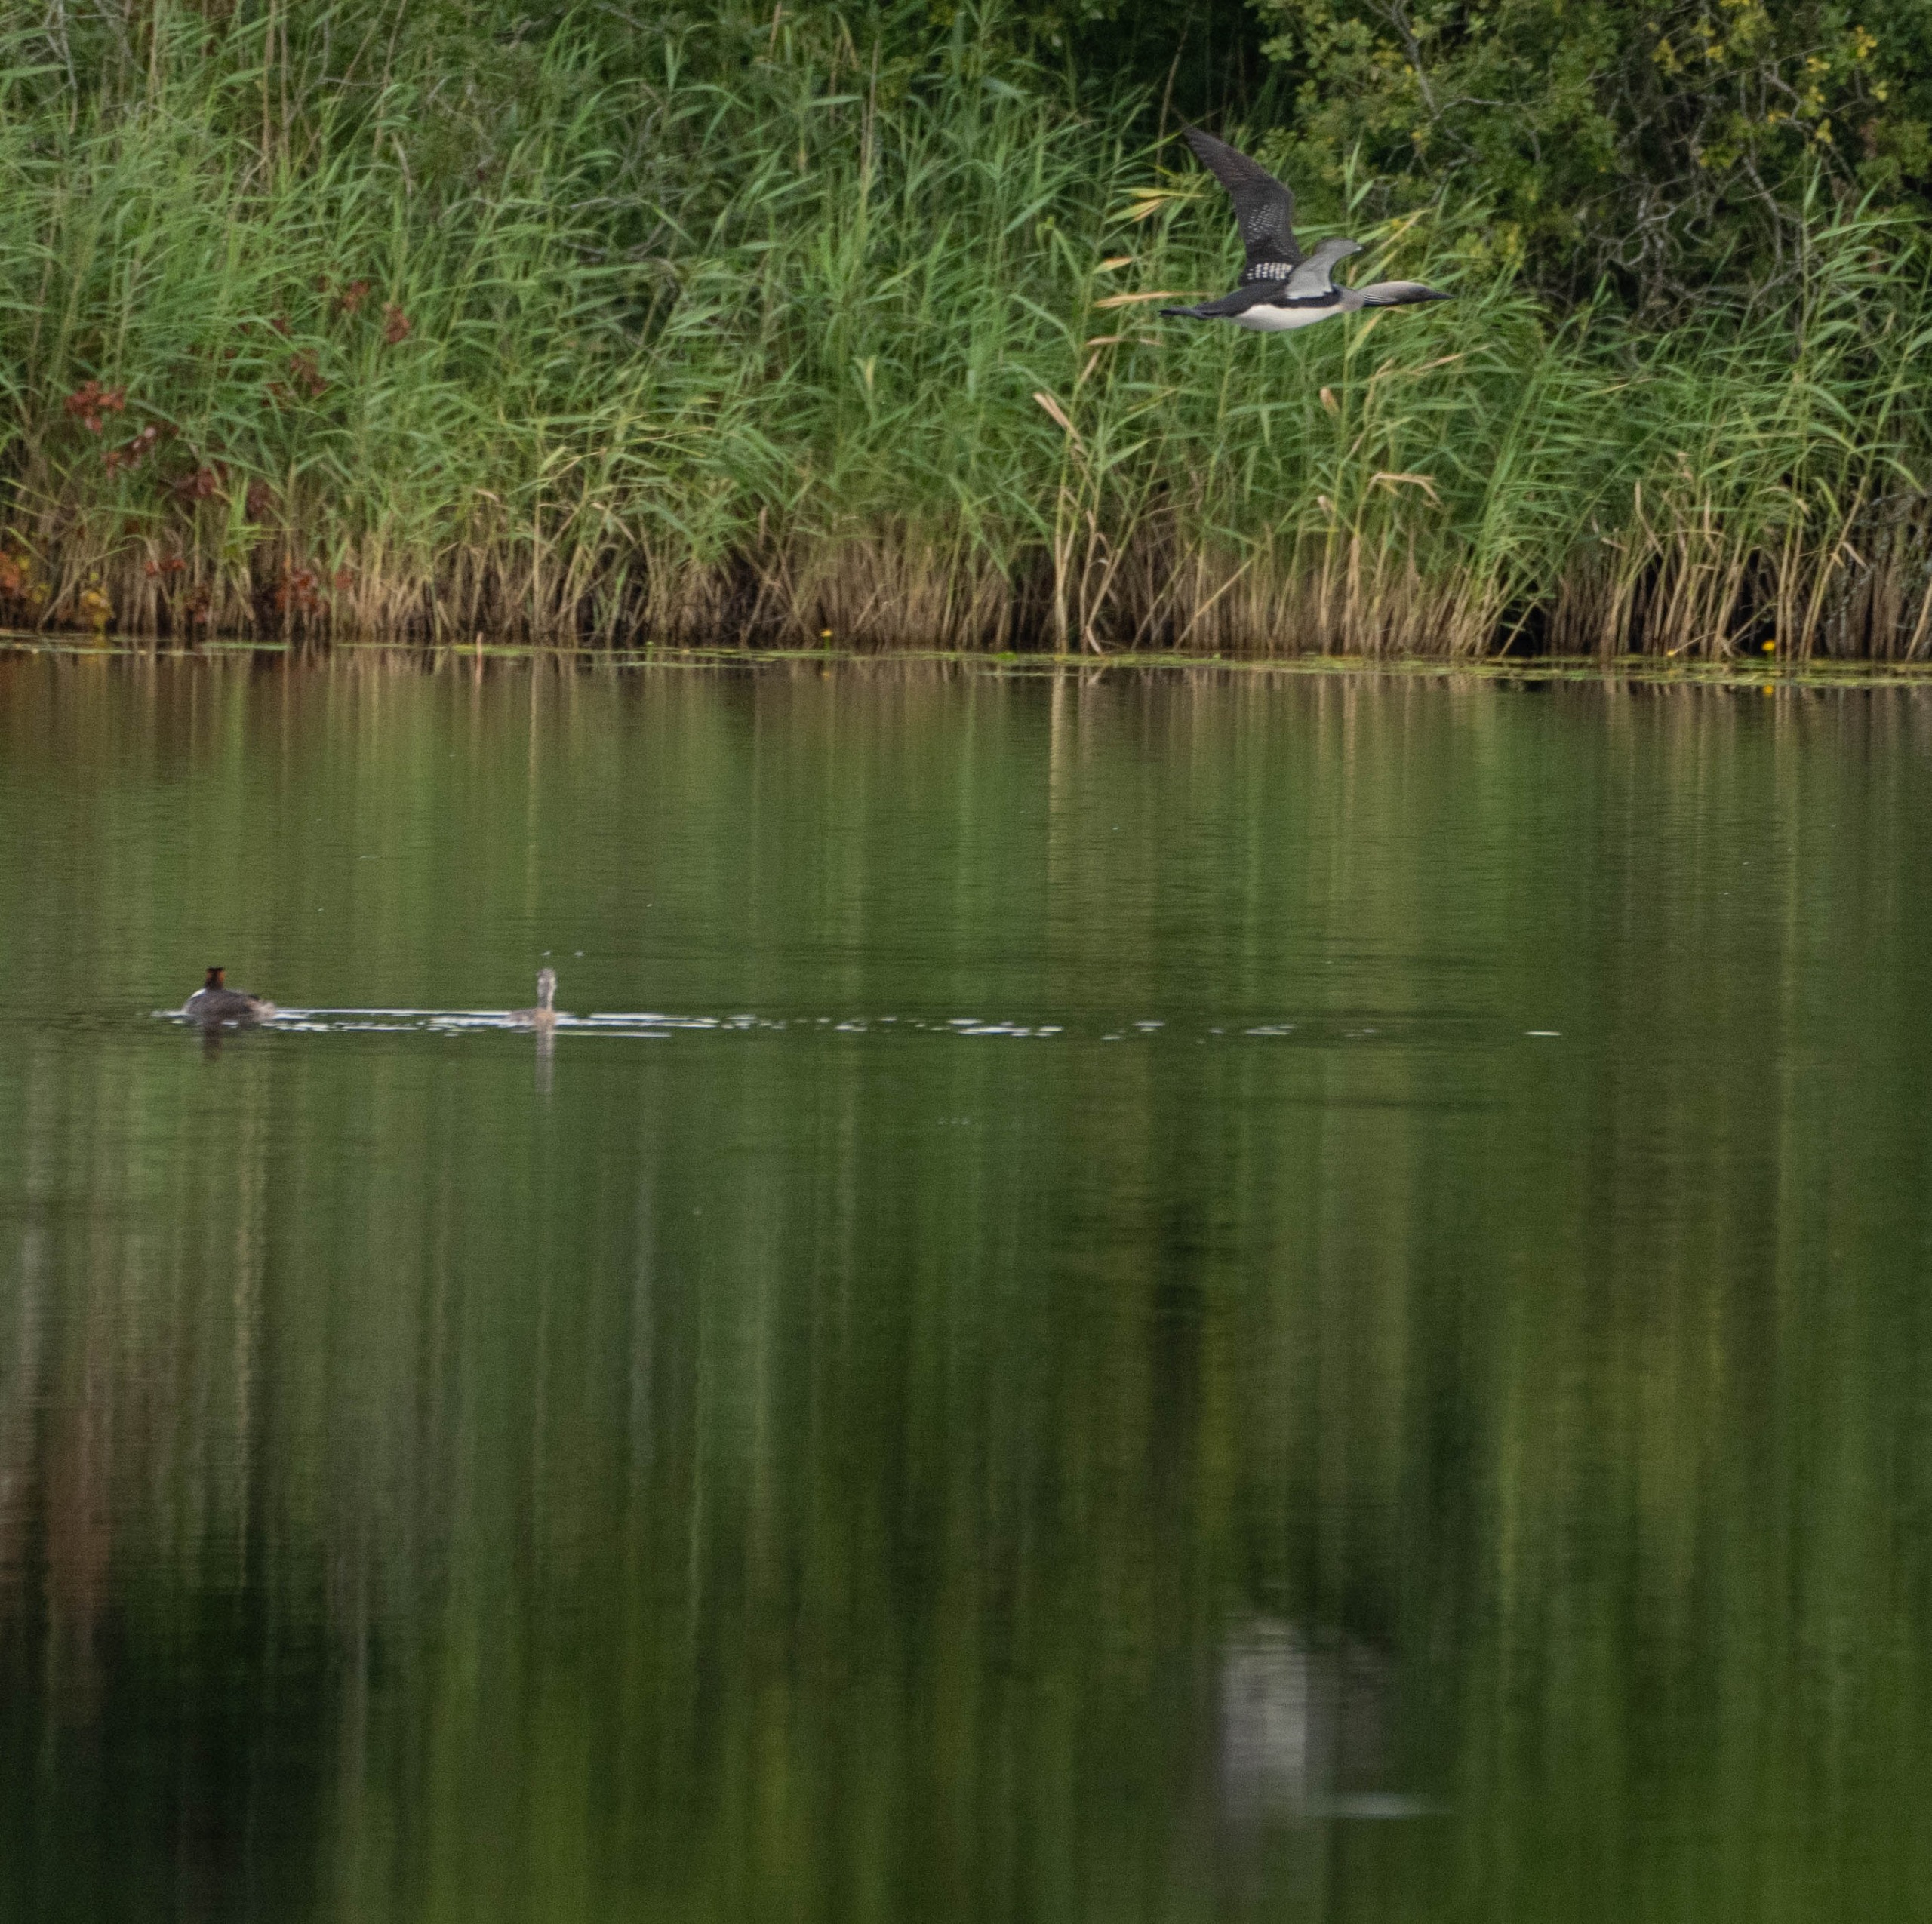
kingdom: Animalia
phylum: Chordata
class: Aves
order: Gaviiformes
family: Gaviidae
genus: Gavia
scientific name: Gavia arctica
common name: Sortstrubet lom
